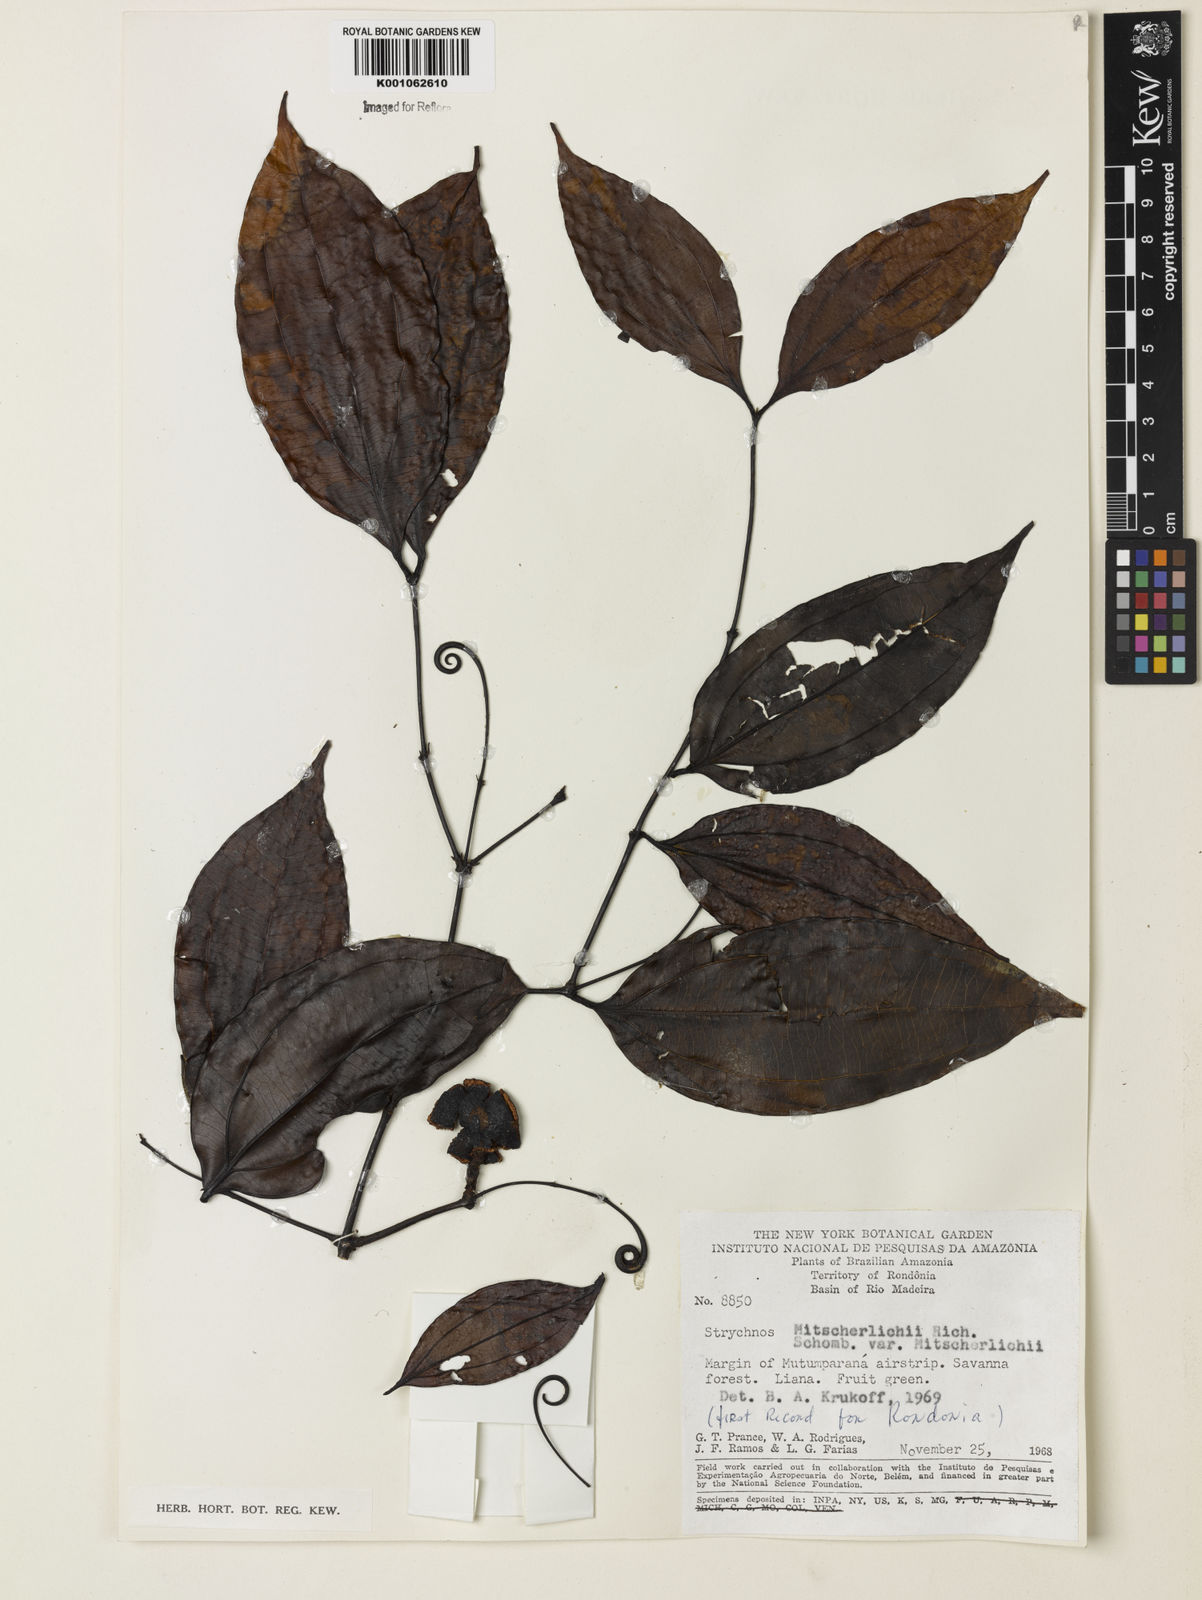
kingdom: Plantae
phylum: Tracheophyta
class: Magnoliopsida
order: Gentianales
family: Loganiaceae
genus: Strychnos
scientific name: Strychnos mitscherlichii
